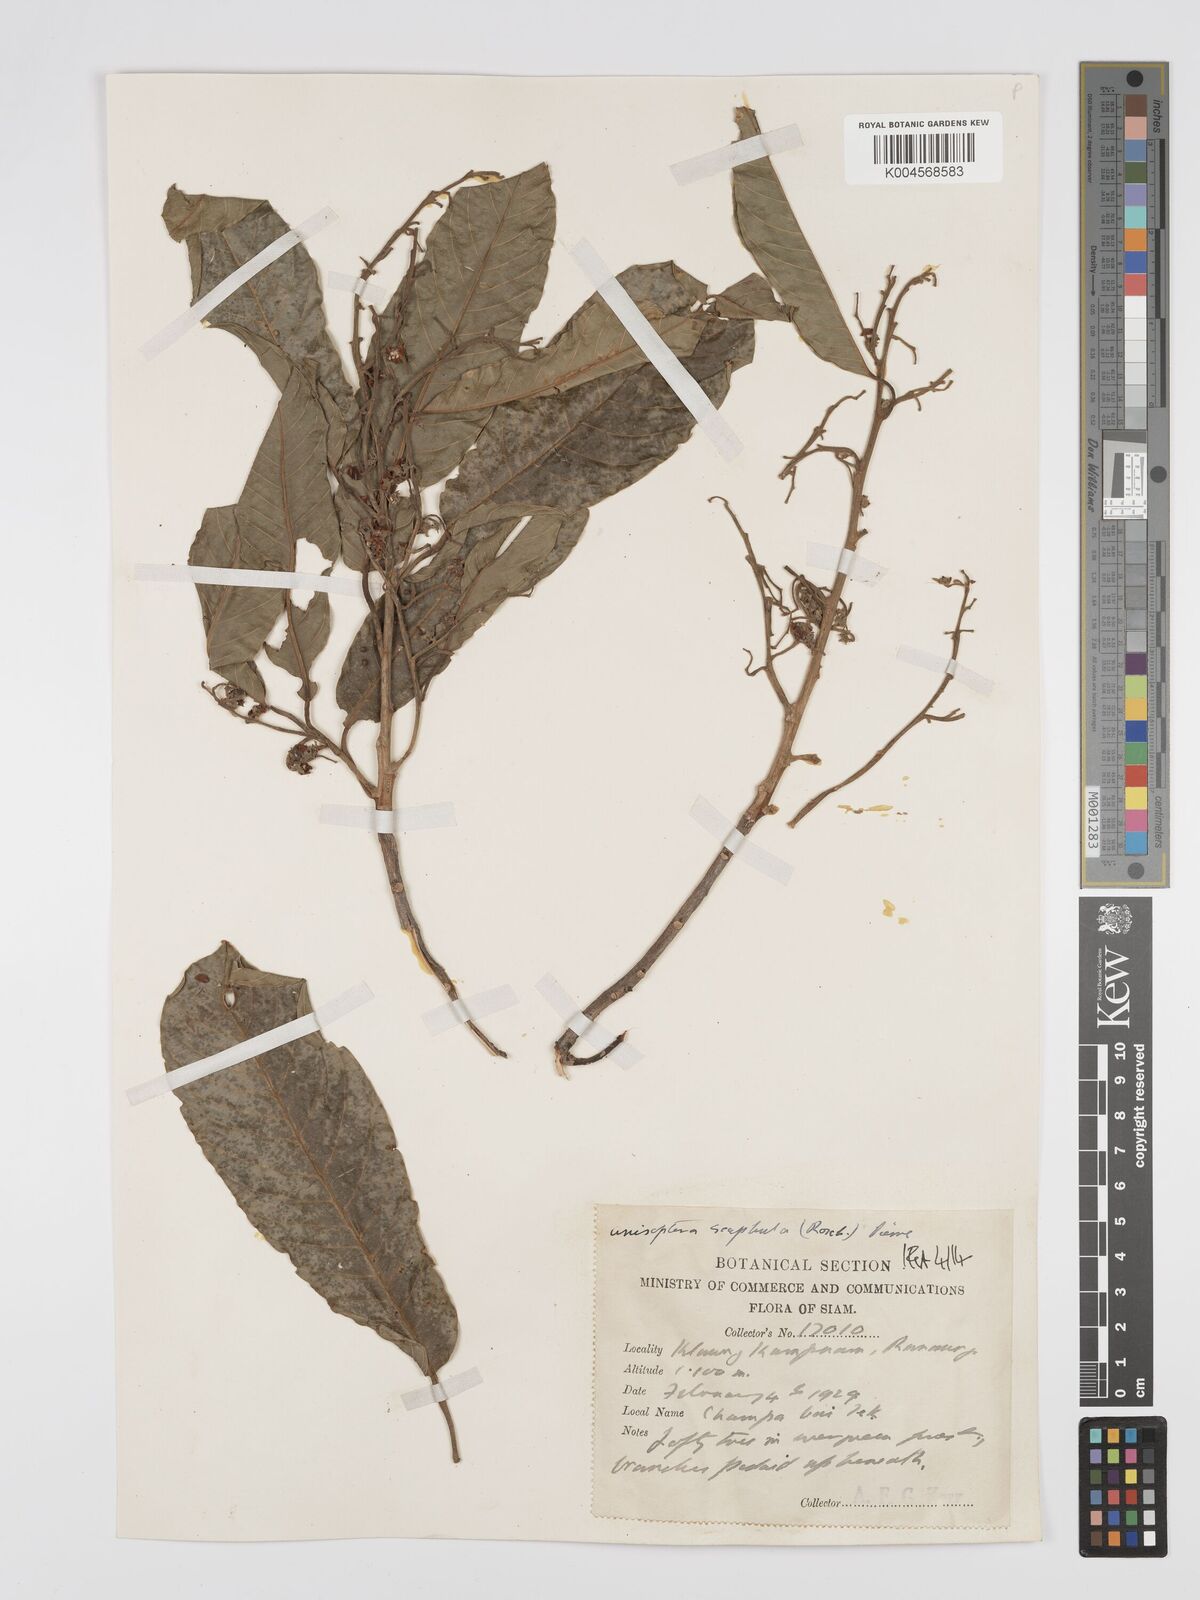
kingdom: Plantae
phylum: Tracheophyta
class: Magnoliopsida
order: Malvales
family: Dipterocarpaceae
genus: Anisoptera
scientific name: Anisoptera scaphula
